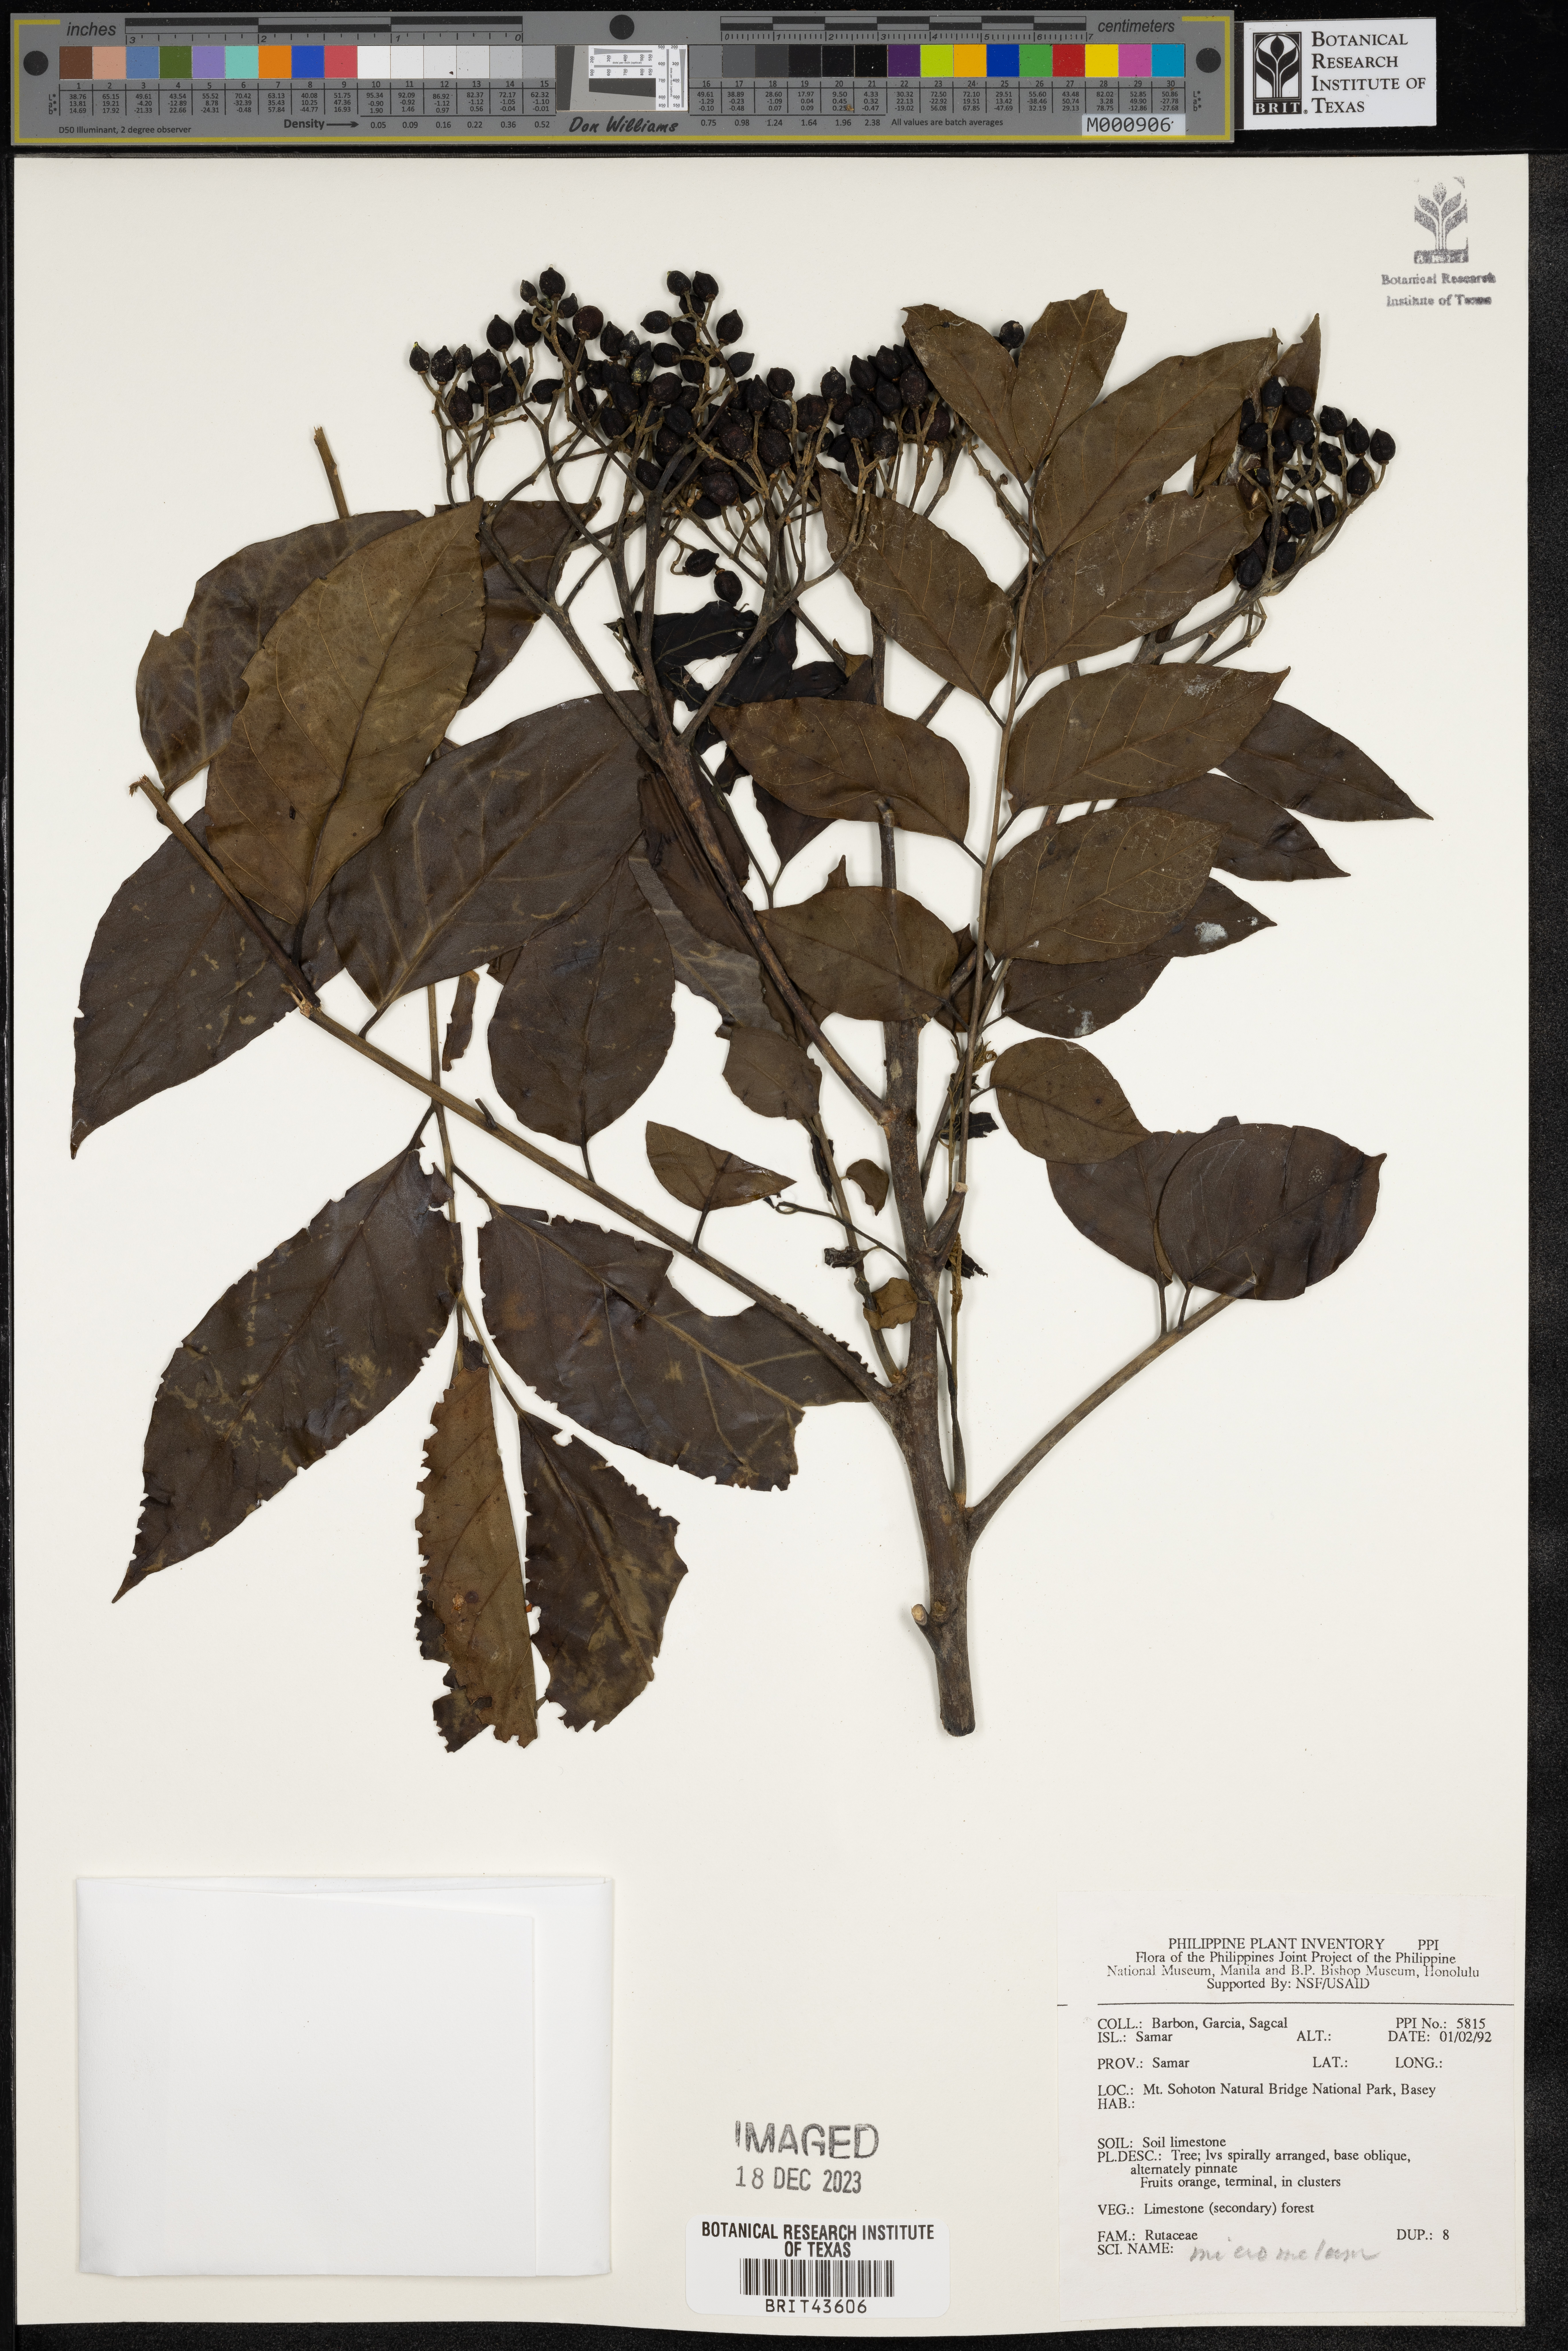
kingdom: Plantae
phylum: Tracheophyta
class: Magnoliopsida
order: Sapindales
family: Rutaceae
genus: Micromelum
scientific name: Micromelum
